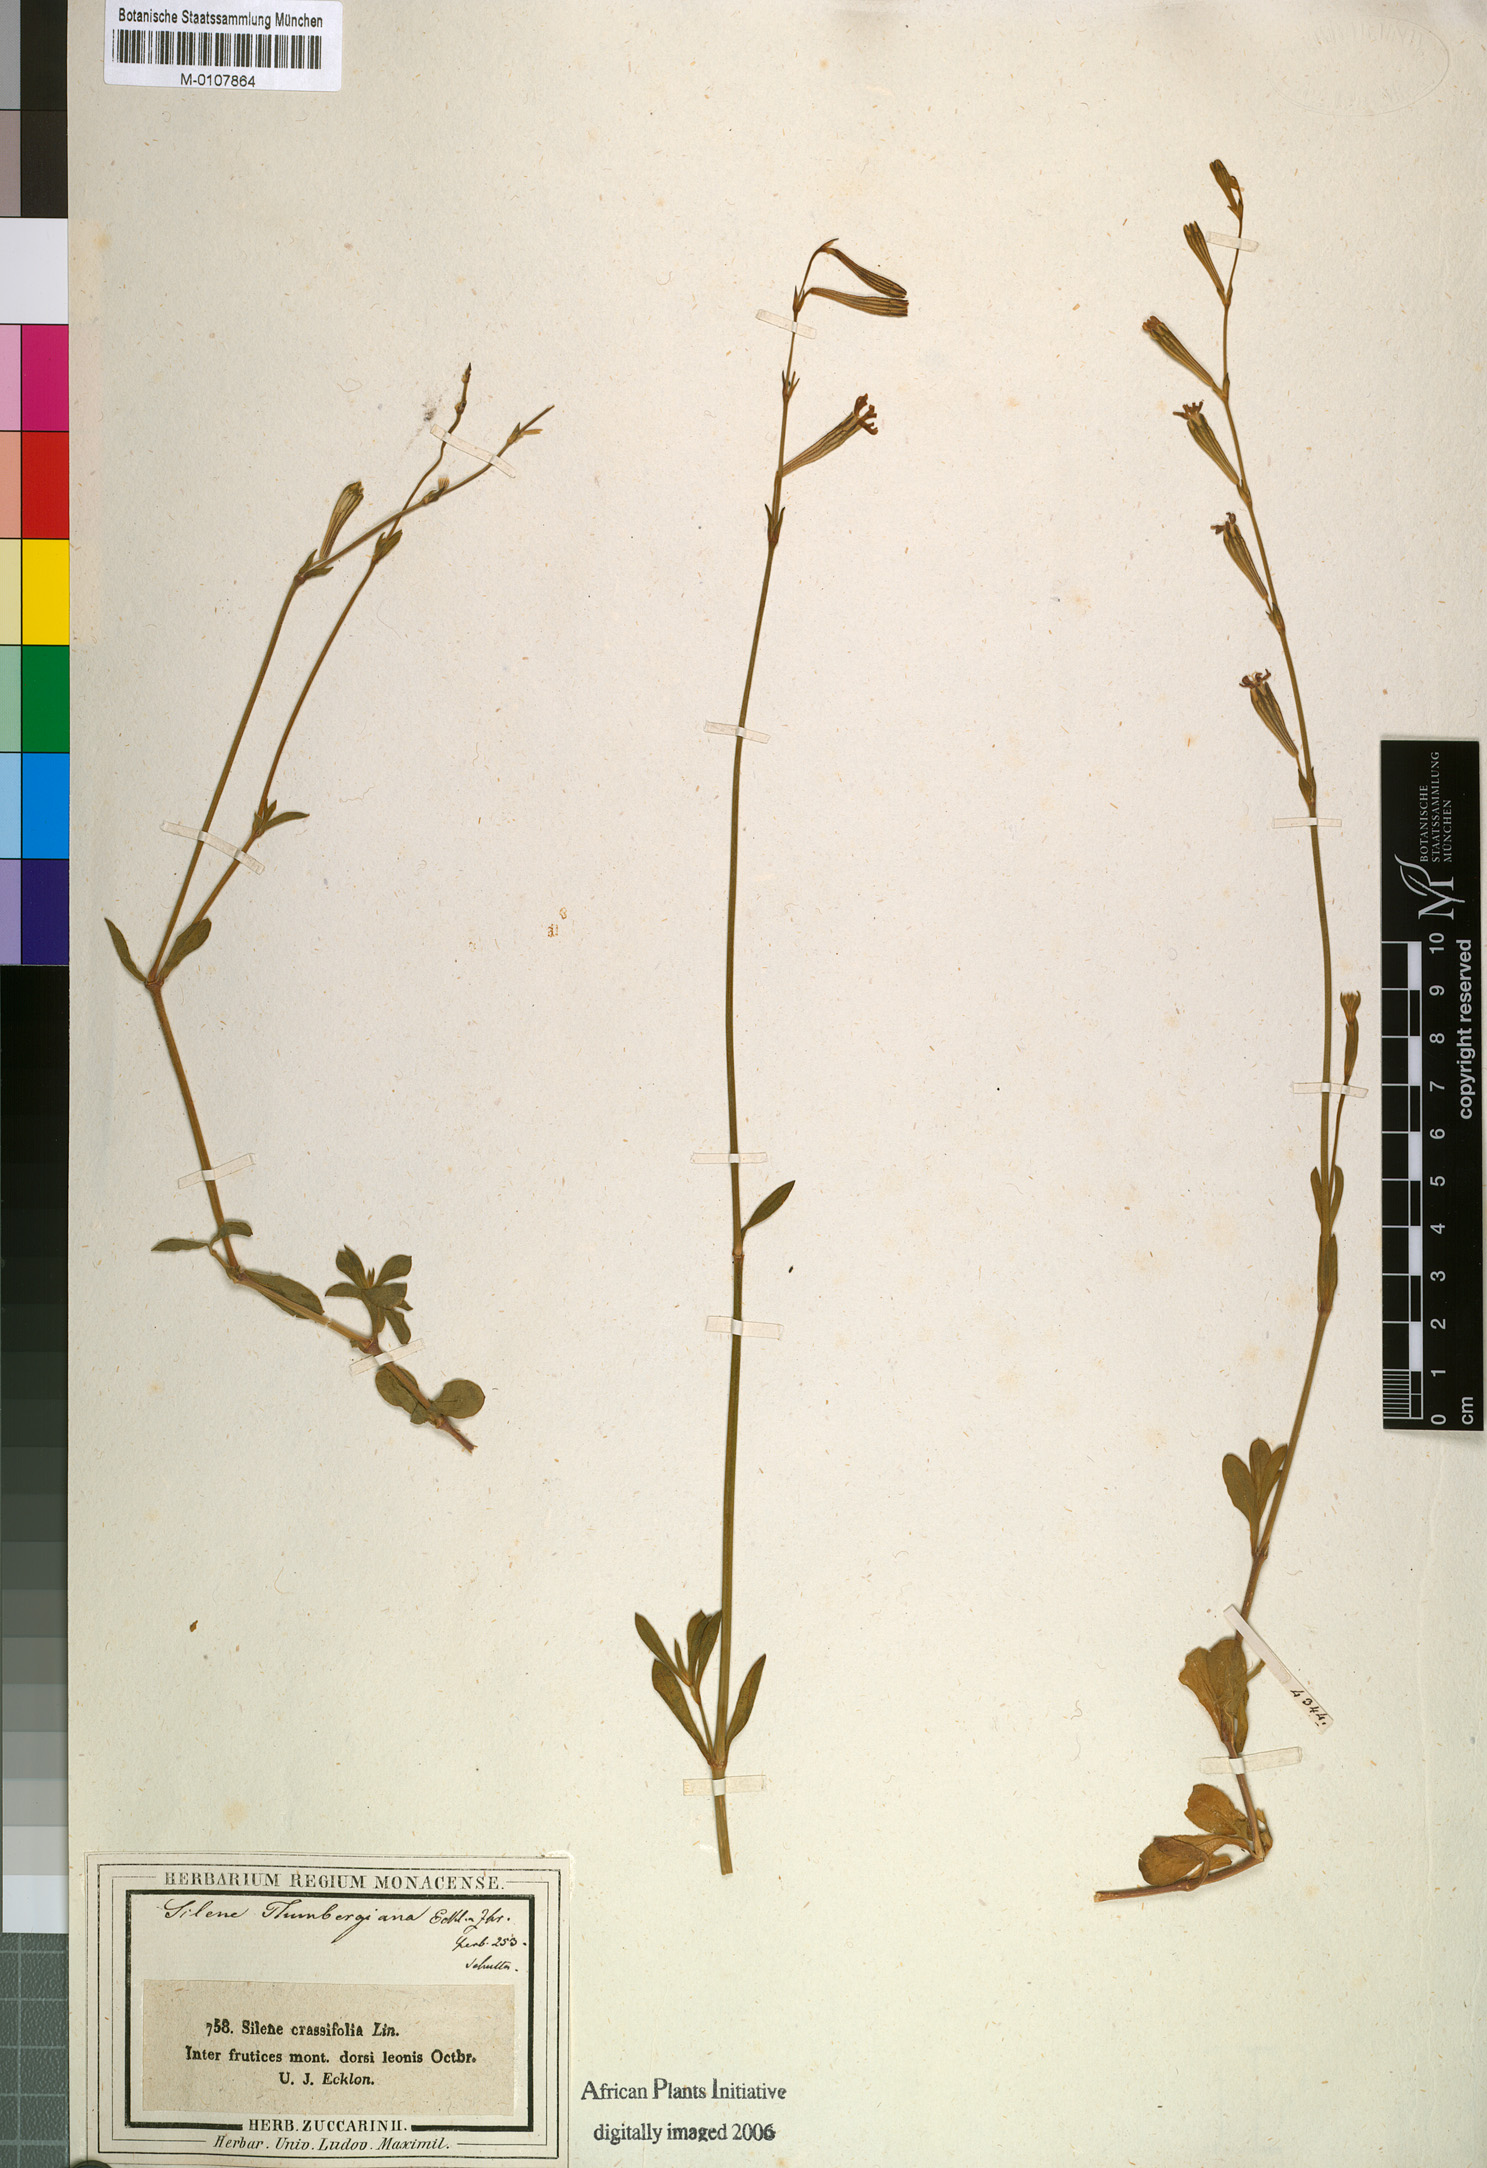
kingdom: Plantae
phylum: Tracheophyta
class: Magnoliopsida
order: Caryophyllales
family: Caryophyllaceae
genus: Silene
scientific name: Silene
